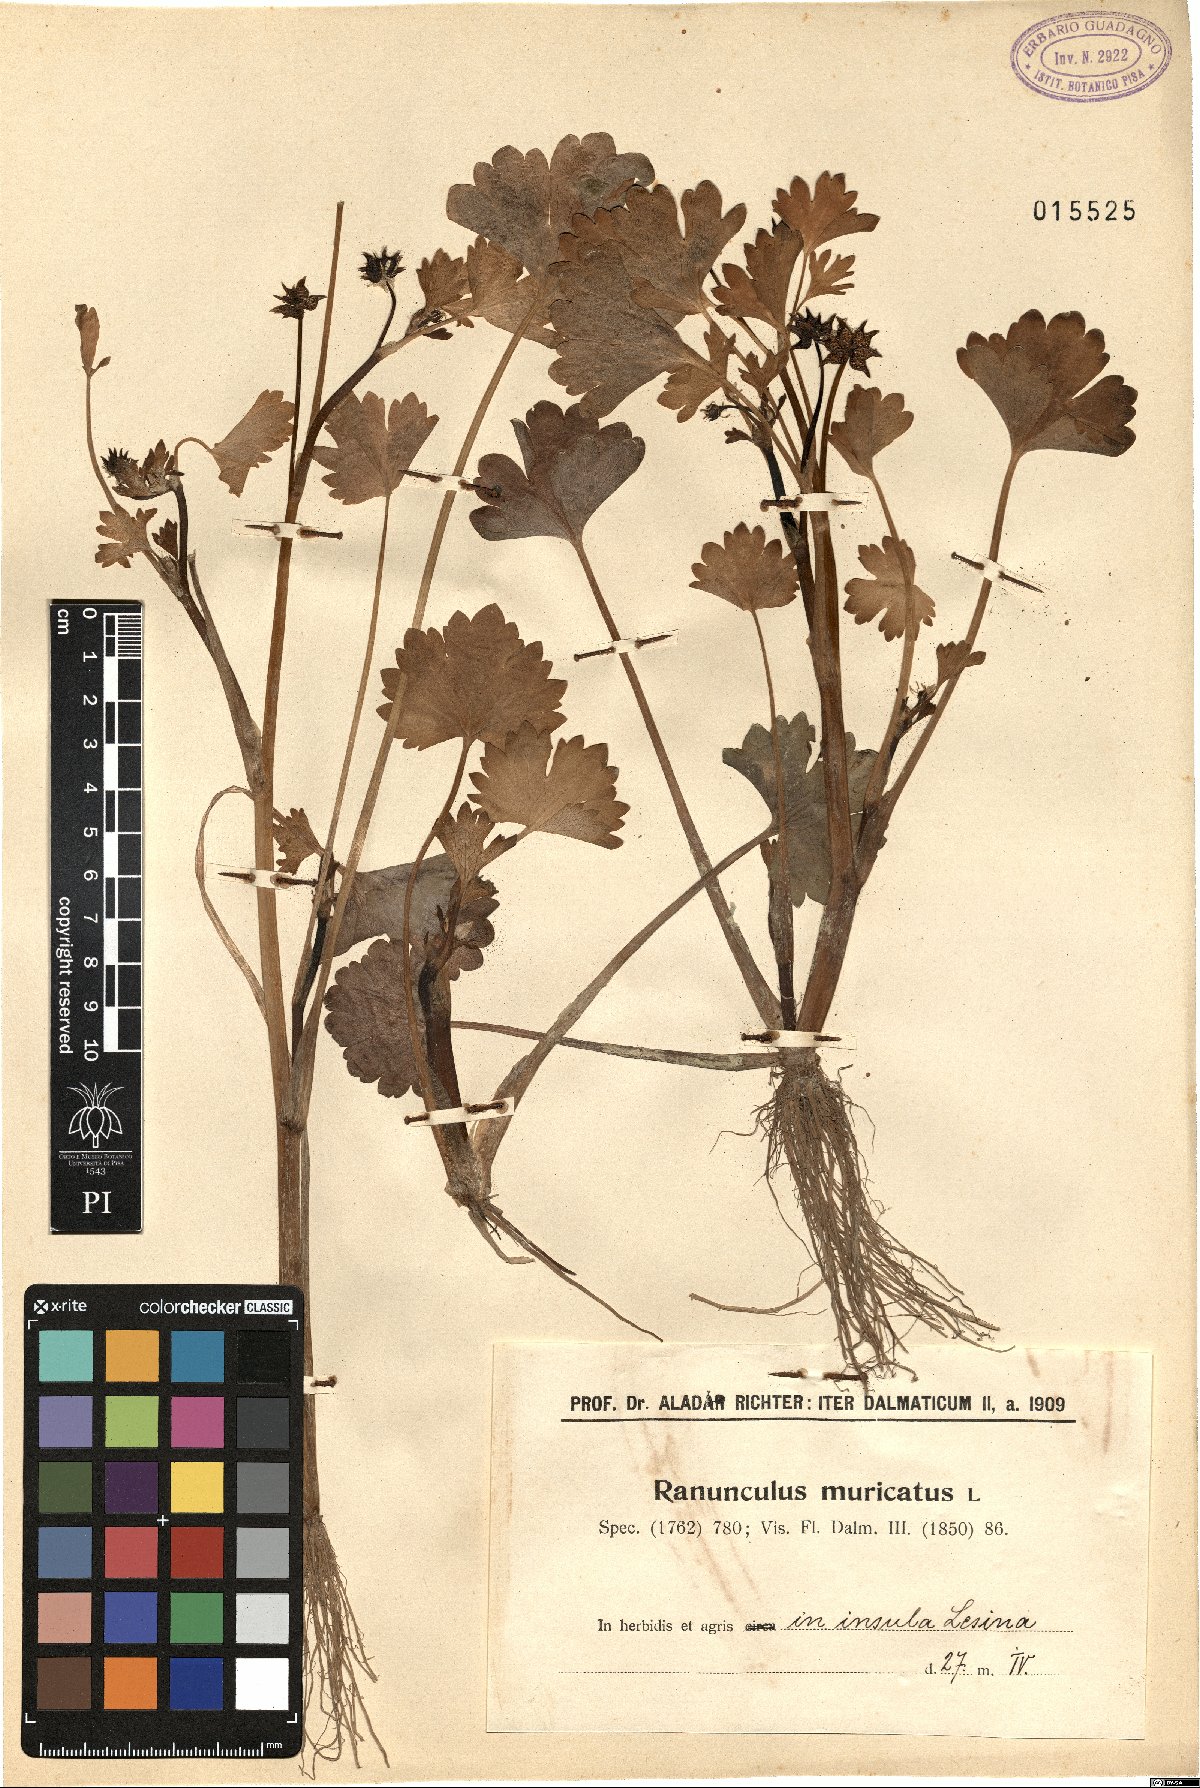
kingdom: Plantae
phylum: Tracheophyta
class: Magnoliopsida
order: Ranunculales
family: Ranunculaceae
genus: Ranunculus
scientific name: Ranunculus muricatus
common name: Rough-fruited buttercup
